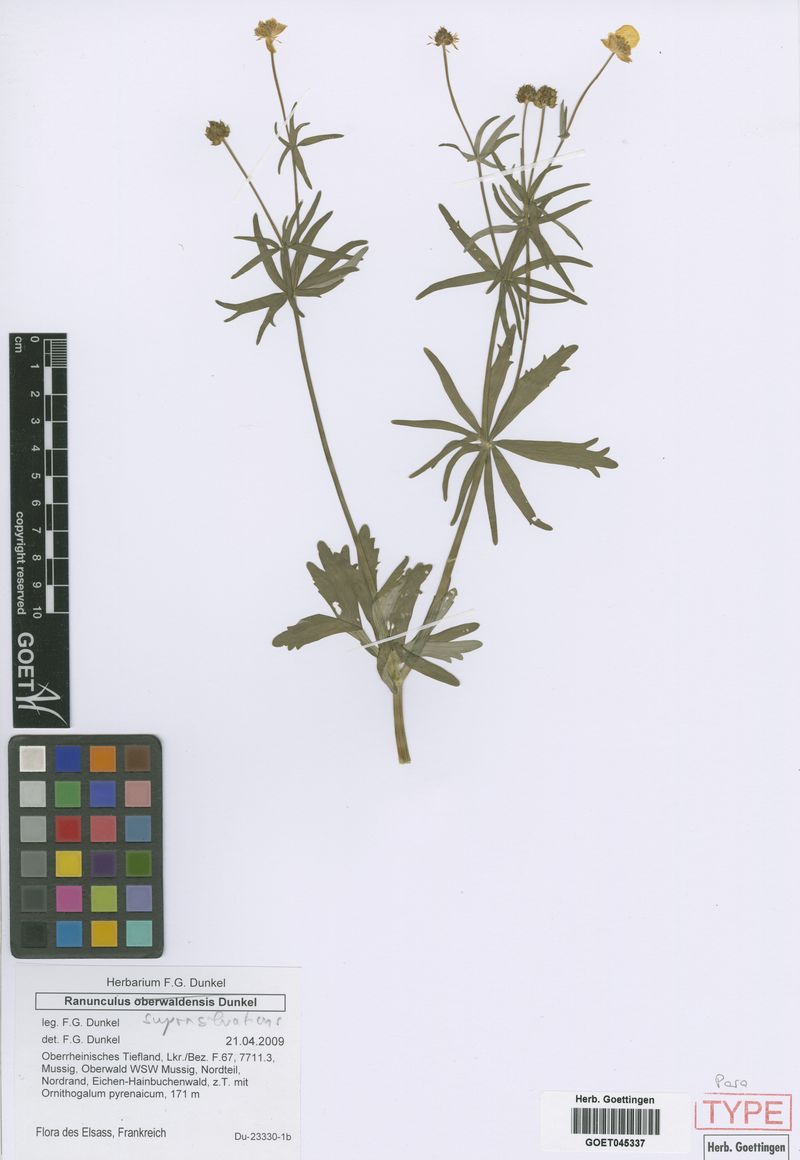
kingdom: Plantae
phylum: Tracheophyta
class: Magnoliopsida
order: Ranunculales
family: Ranunculaceae
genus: Ranunculus
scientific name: Ranunculus suprasilvaticus
